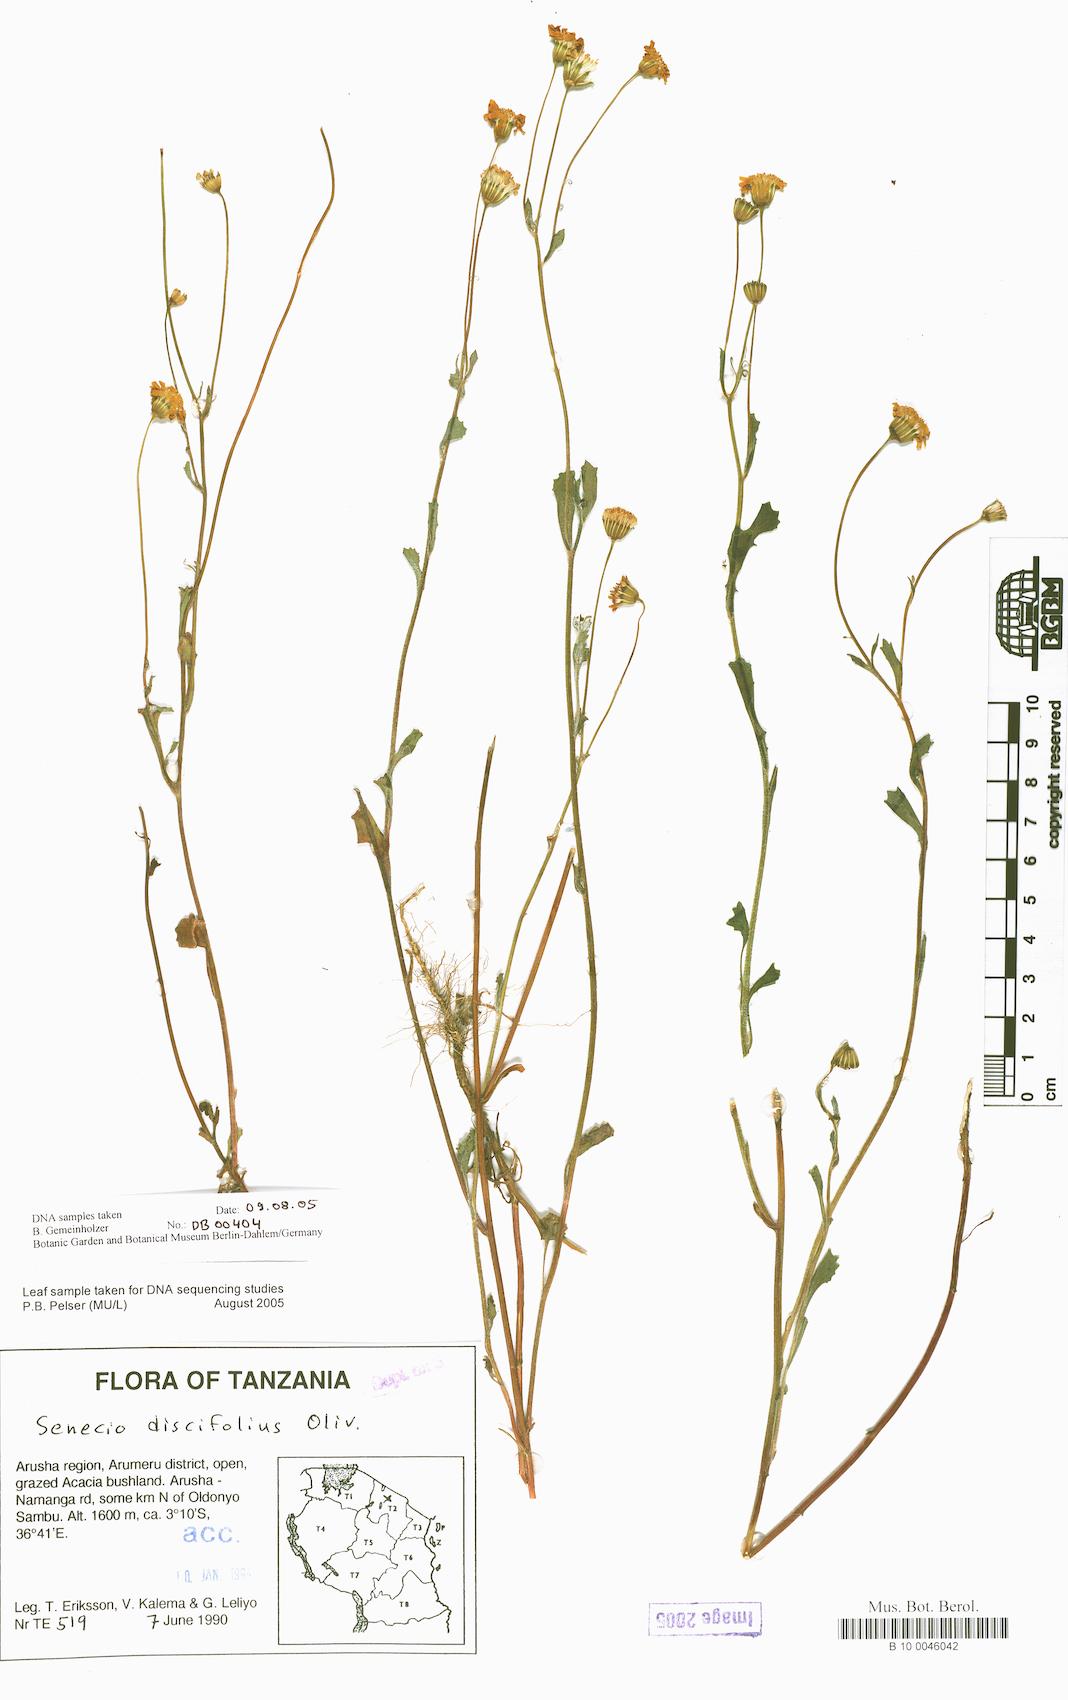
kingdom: Plantae
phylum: Tracheophyta
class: Magnoliopsida
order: Asterales
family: Asteraceae
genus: Emilia
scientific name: Emilia discifolia
